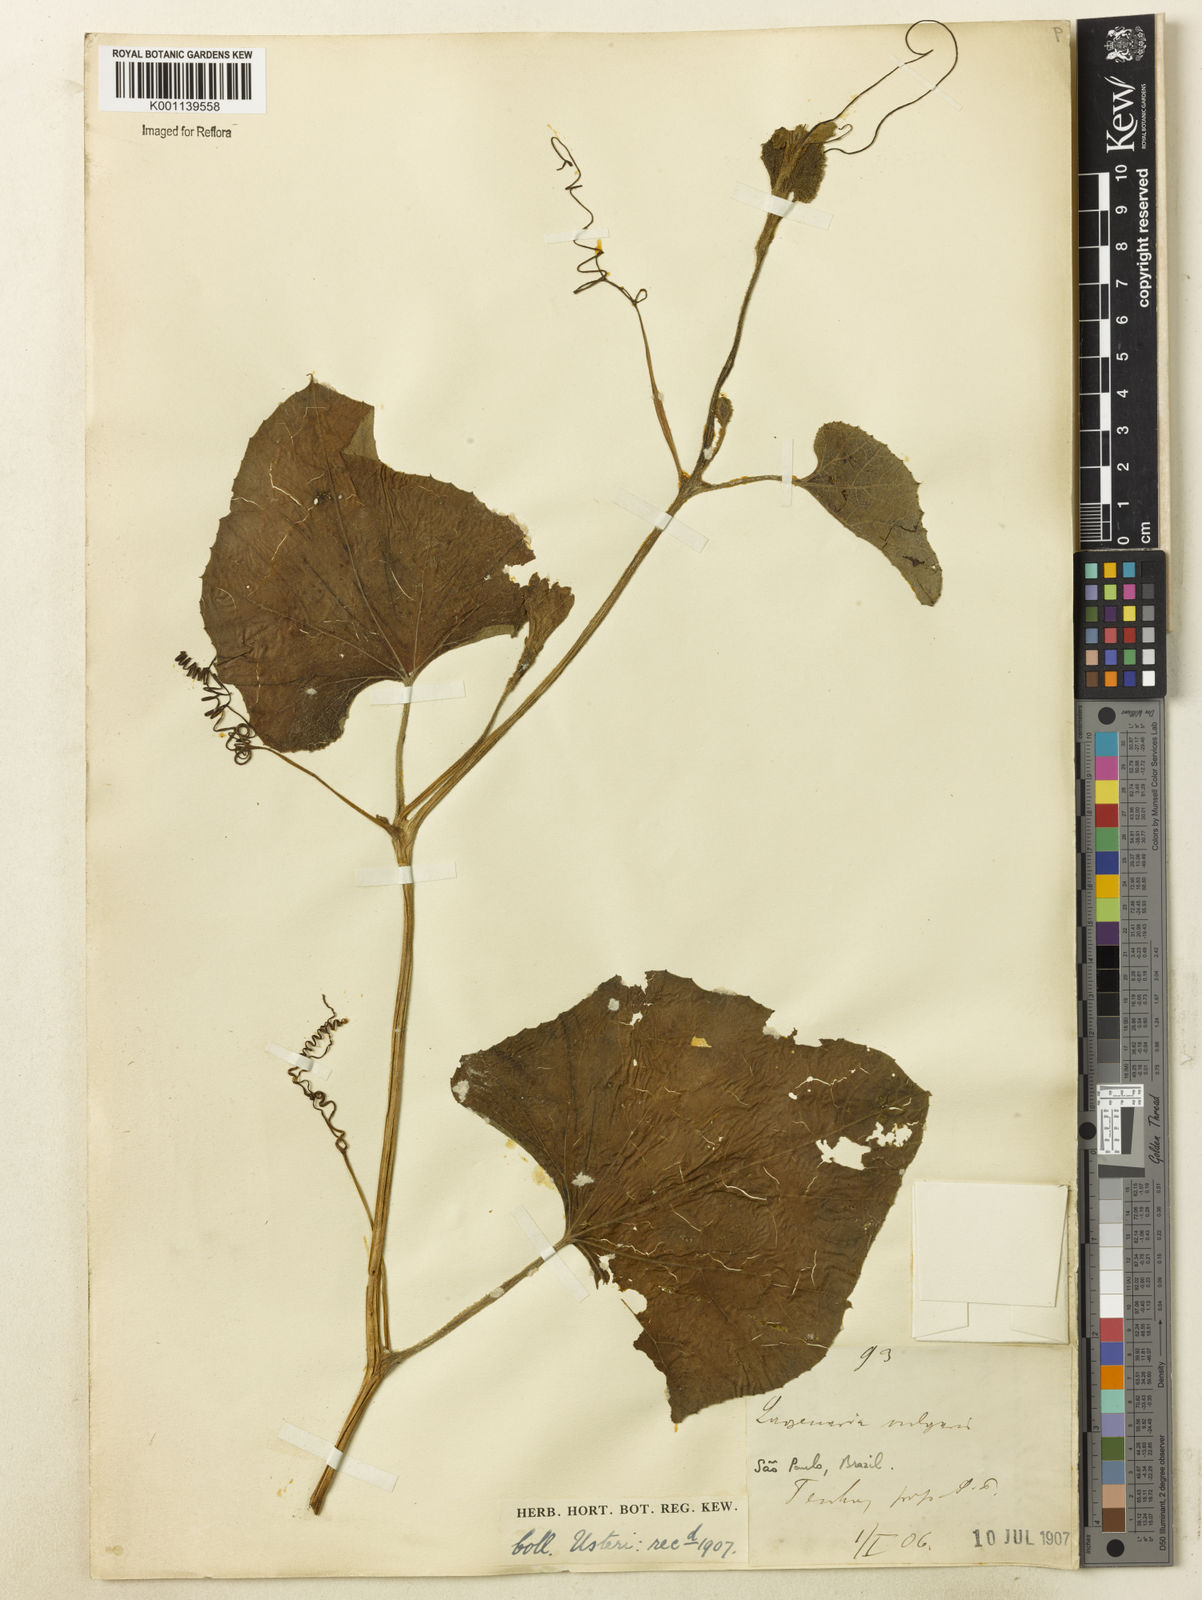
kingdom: Plantae
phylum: Tracheophyta
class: Magnoliopsida
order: Cucurbitales
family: Cucurbitaceae
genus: Lagenaria
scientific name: Lagenaria siceraria
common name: Bottle gourd
